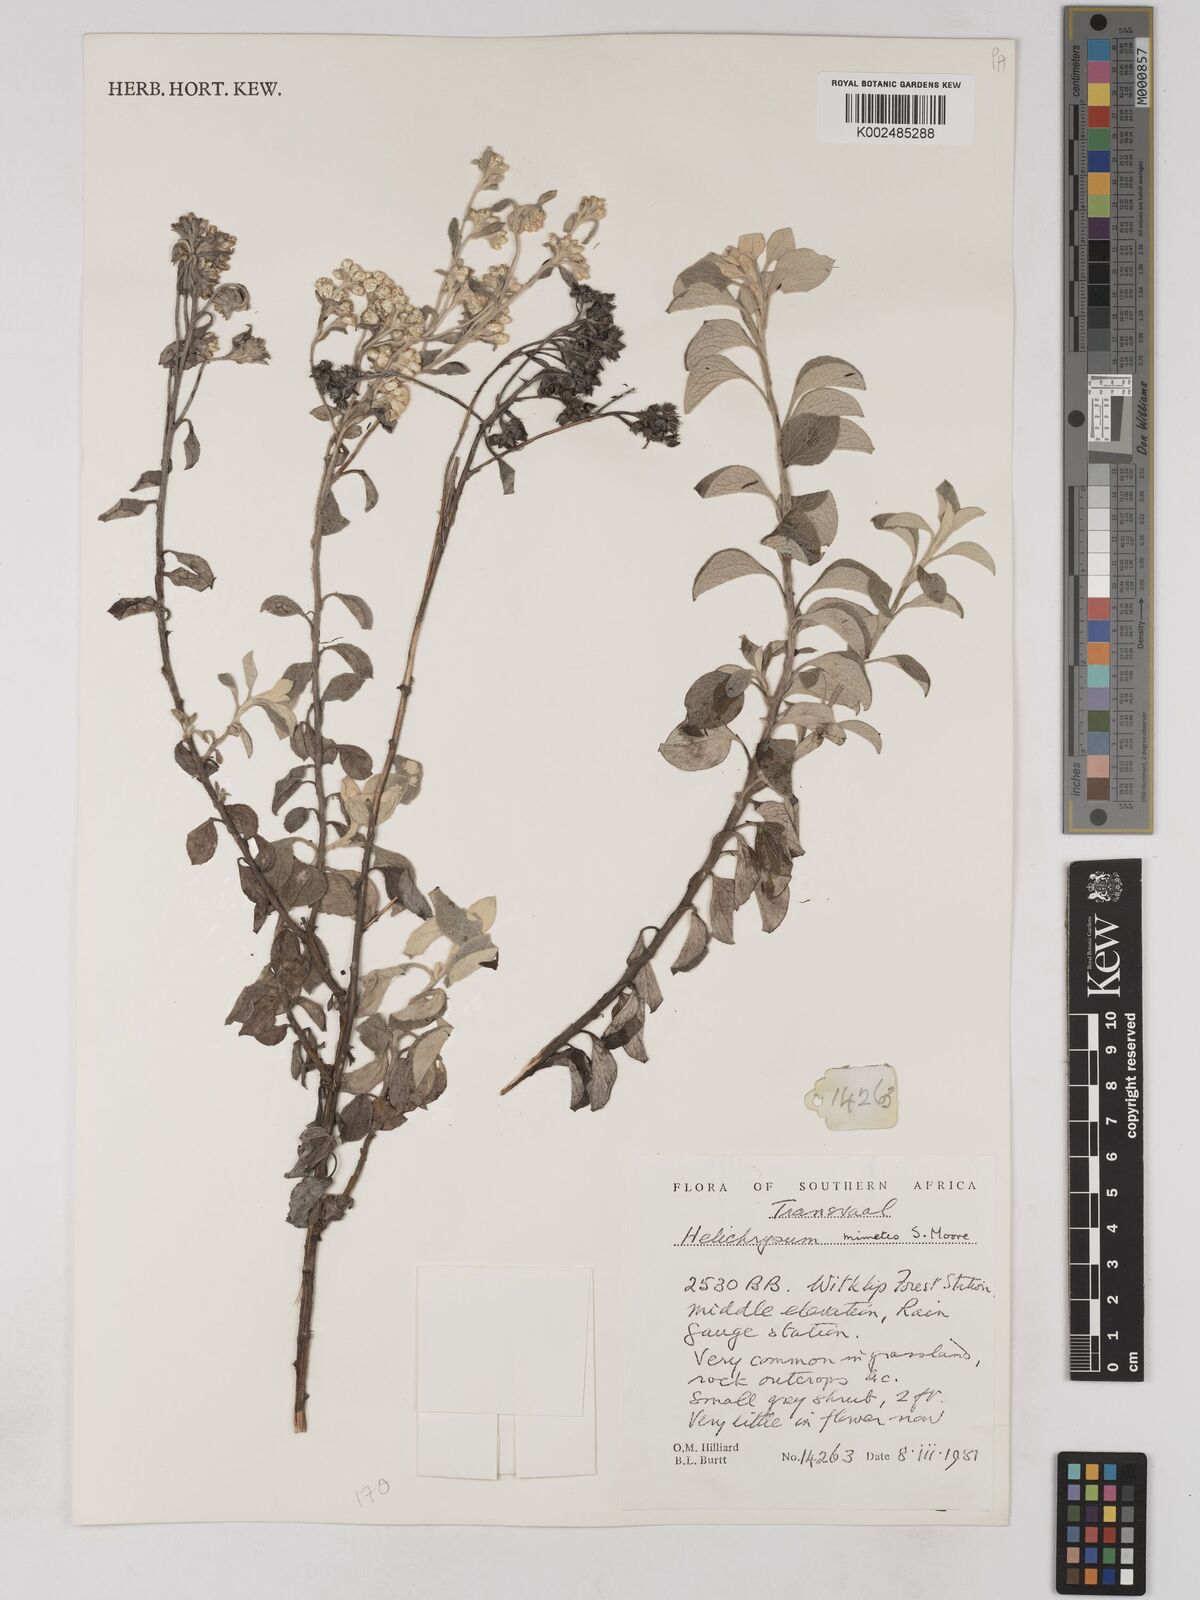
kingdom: Plantae
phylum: Tracheophyta
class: Magnoliopsida
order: Asterales
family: Asteraceae
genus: Helichrysum
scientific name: Helichrysum mimetes
